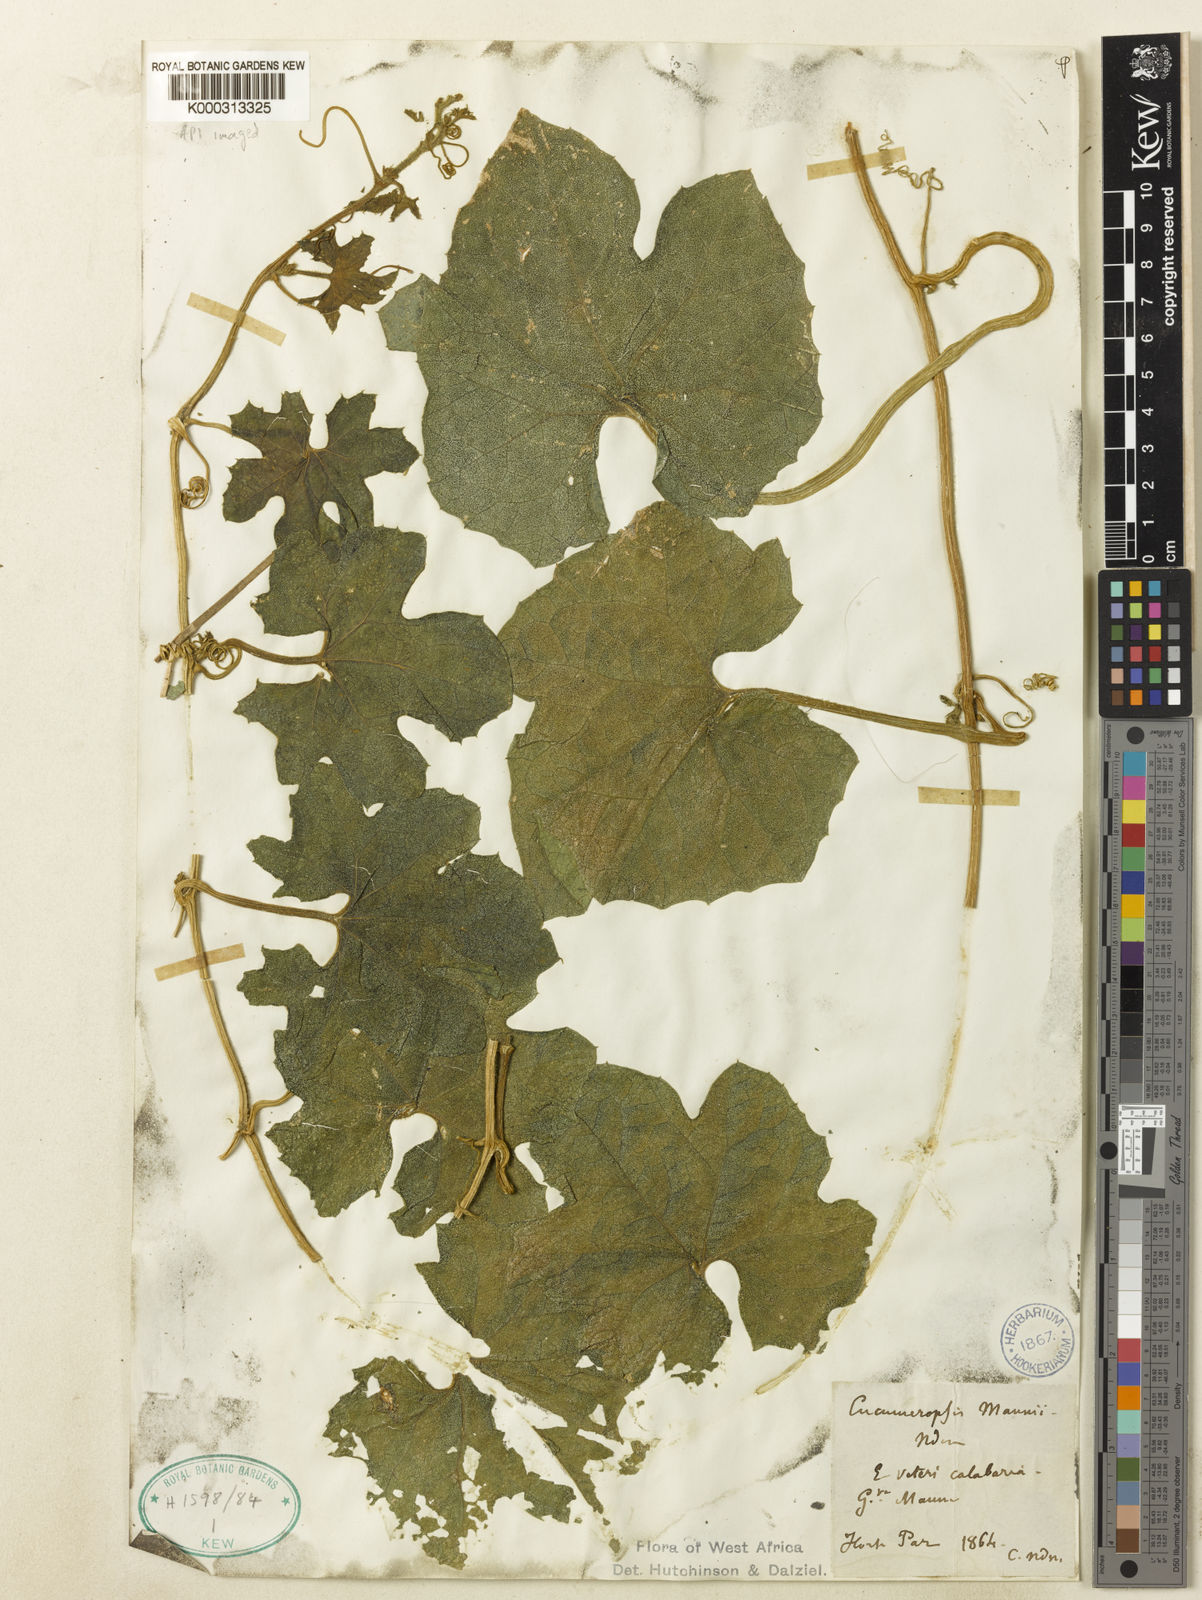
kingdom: Plantae
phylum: Tracheophyta
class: Magnoliopsida
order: Cucurbitales
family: Cucurbitaceae
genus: Melothria
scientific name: Melothria sphaerocarpa
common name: Egusi-itoo
